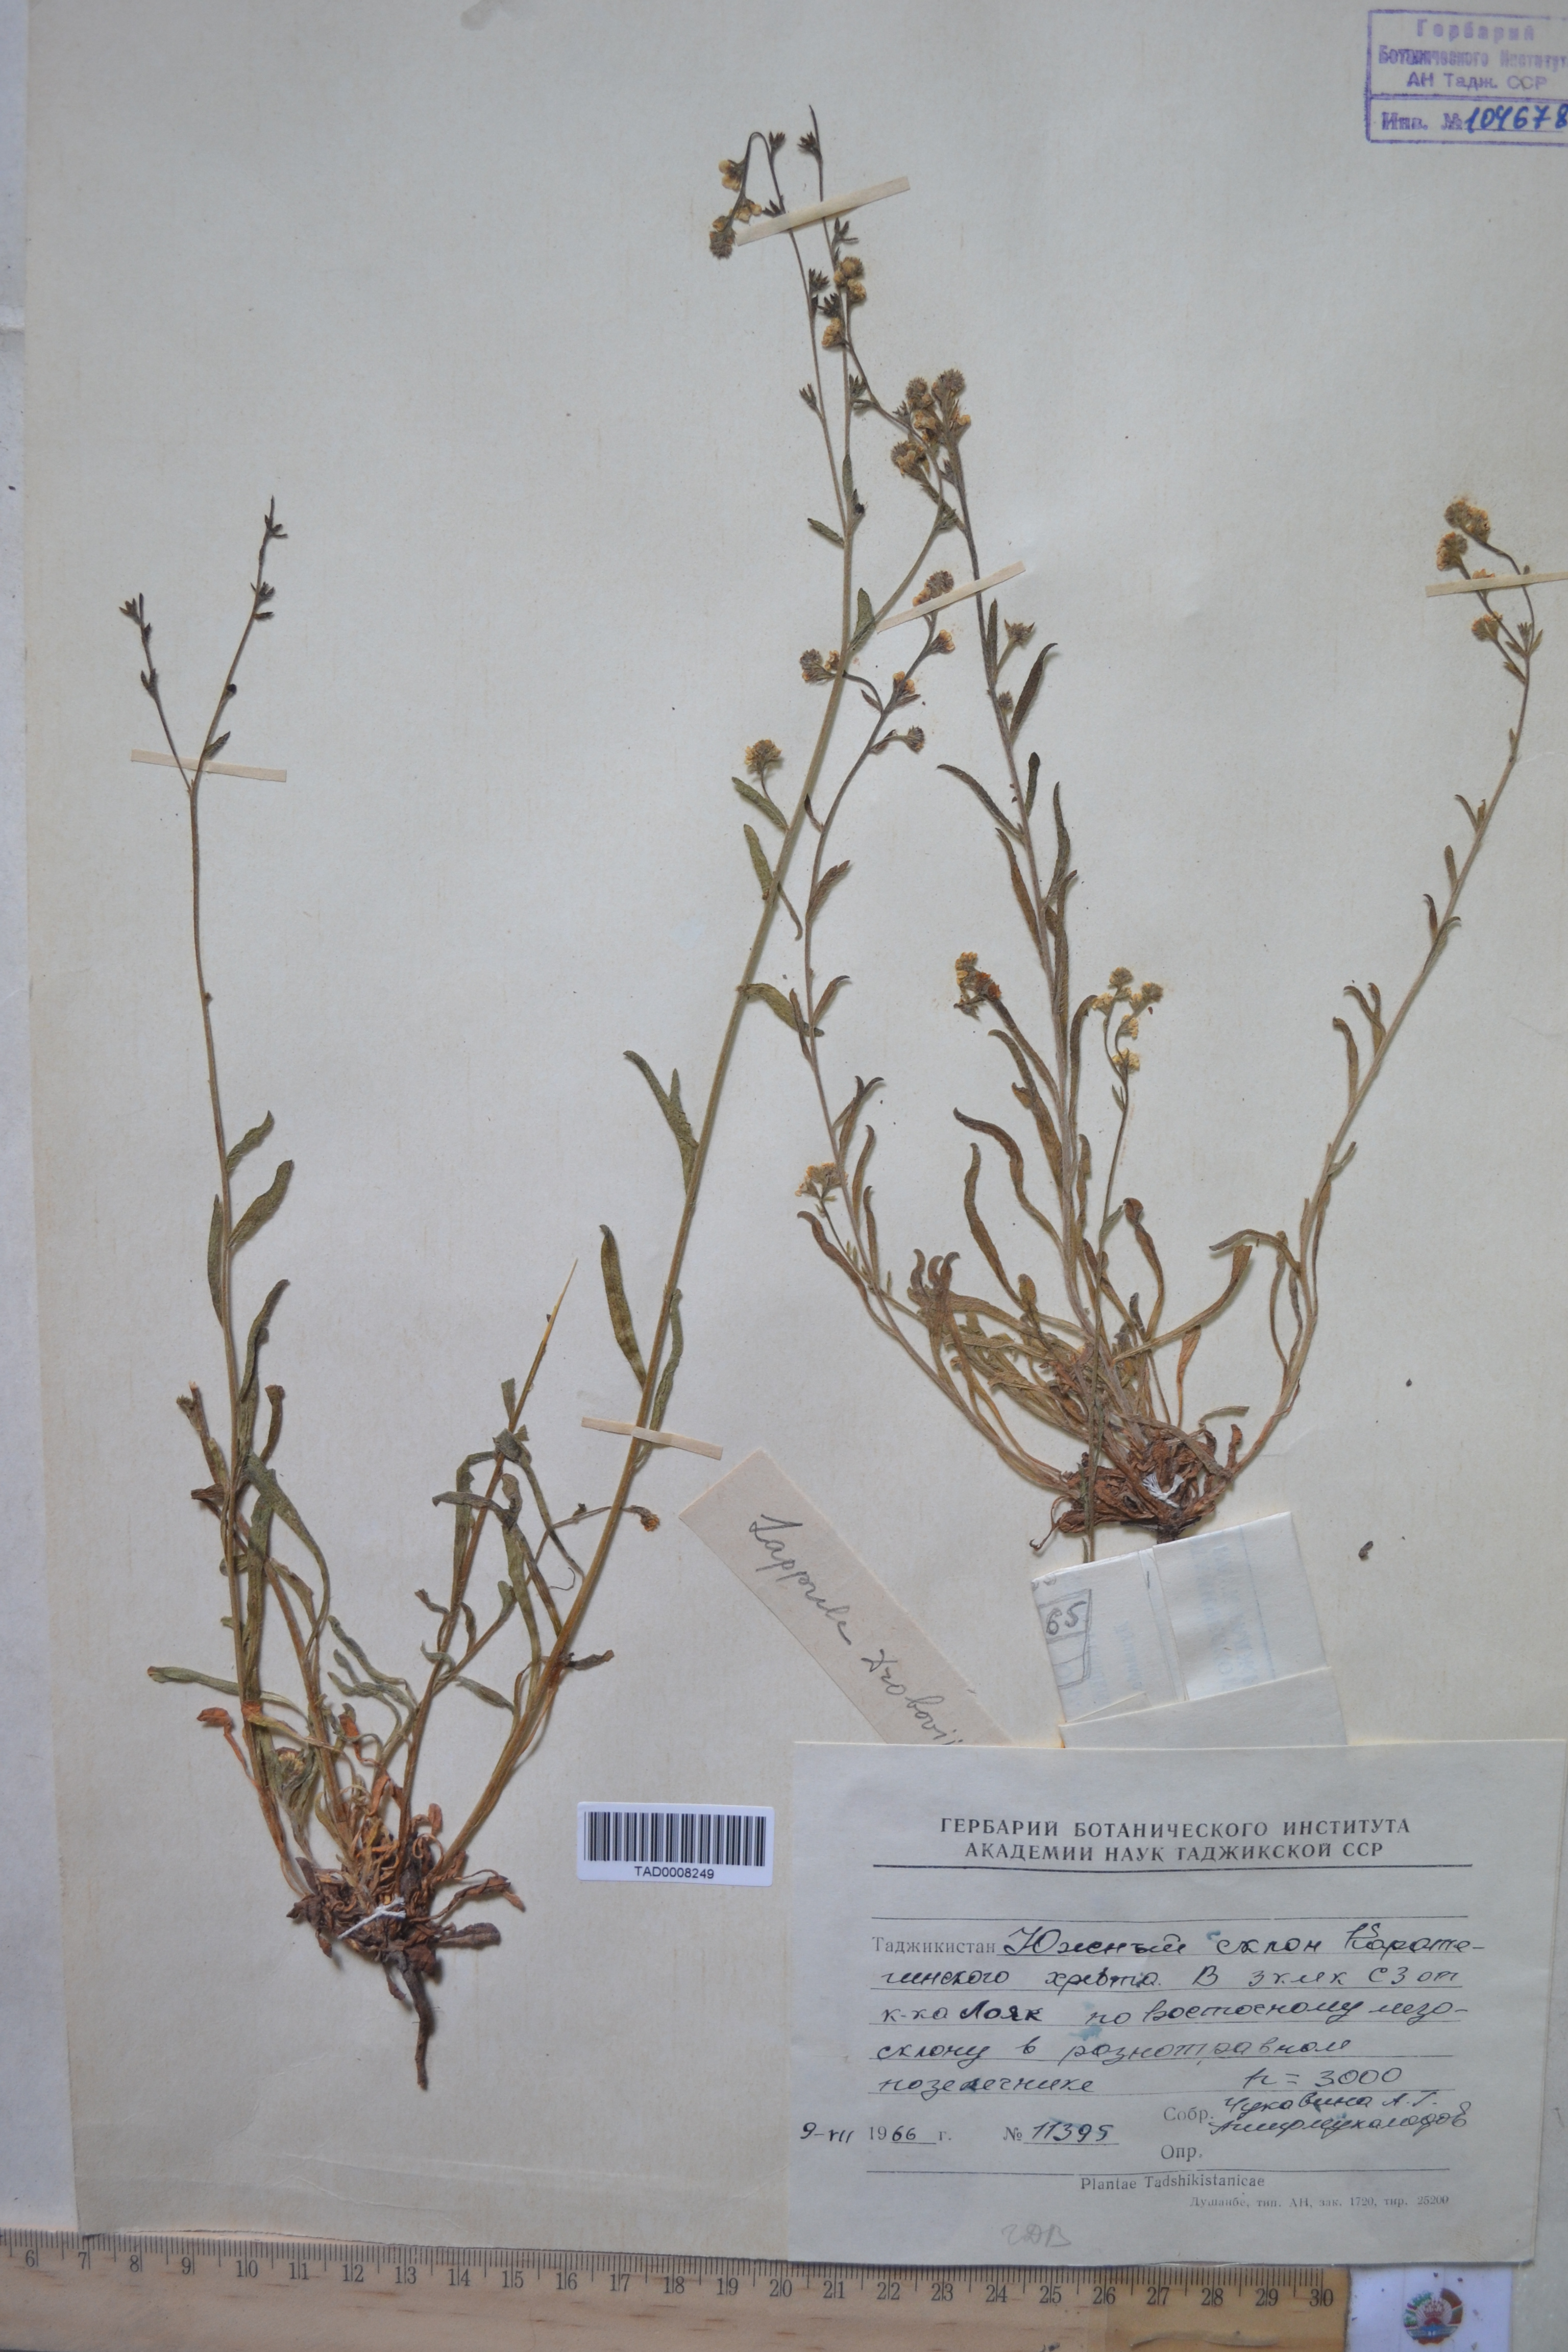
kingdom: Plantae
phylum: Tracheophyta
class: Magnoliopsida
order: Boraginales
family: Boraginaceae
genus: Rochelia
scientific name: Rochelia drobovii
